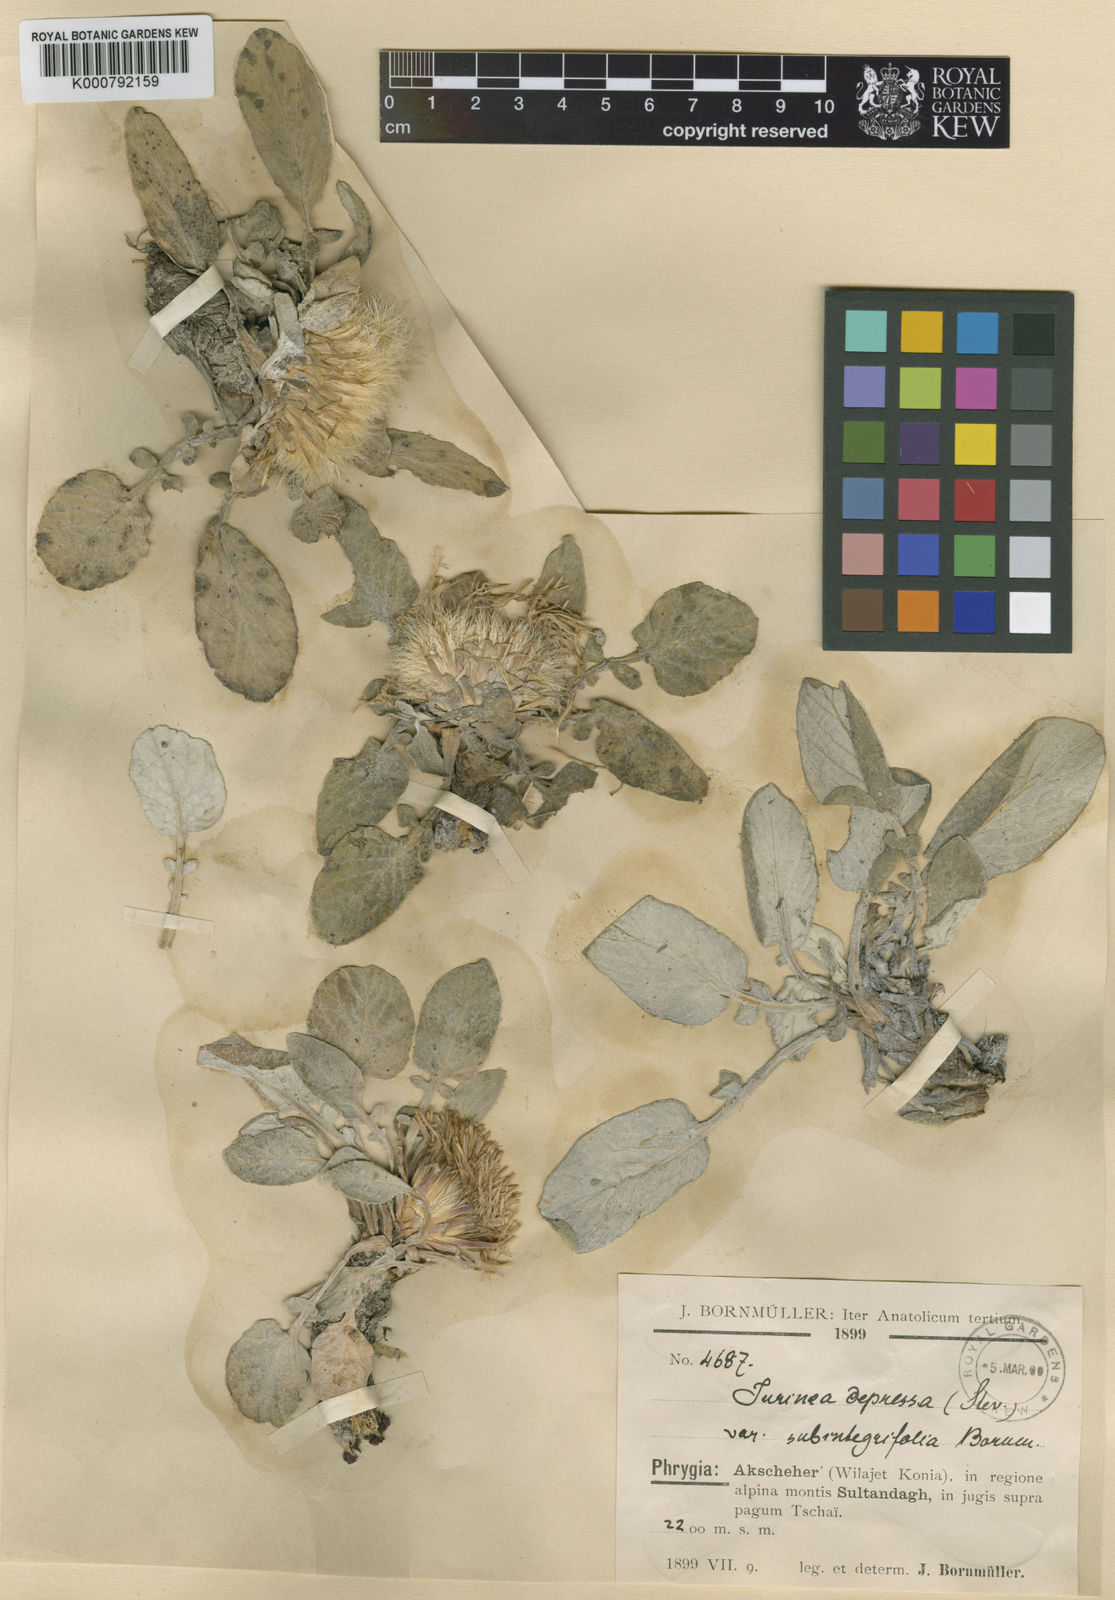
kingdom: Plantae
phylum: Tracheophyta
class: Magnoliopsida
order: Asterales
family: Asteraceae
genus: Jurinea
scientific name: Jurinea moschus
